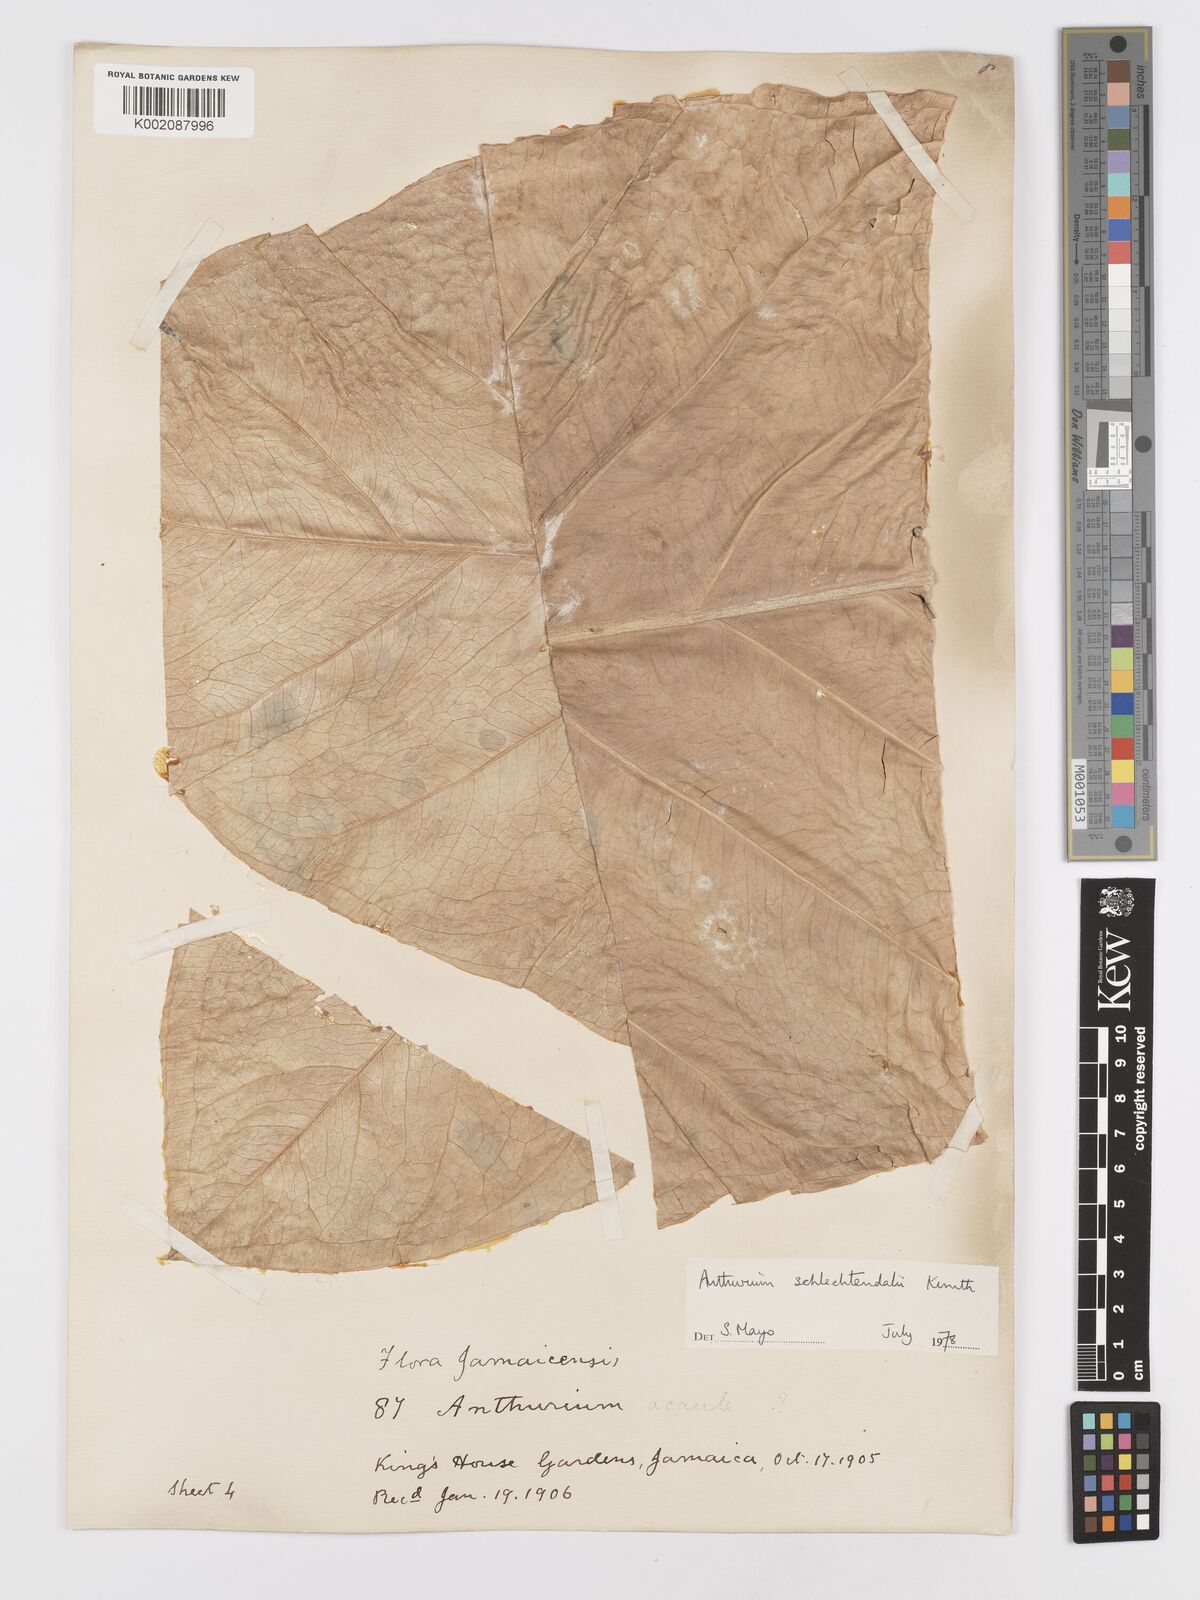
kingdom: Plantae
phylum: Tracheophyta
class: Liliopsida
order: Alismatales
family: Araceae
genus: Anthurium
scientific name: Anthurium schlechtendalii
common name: Laceleaf
